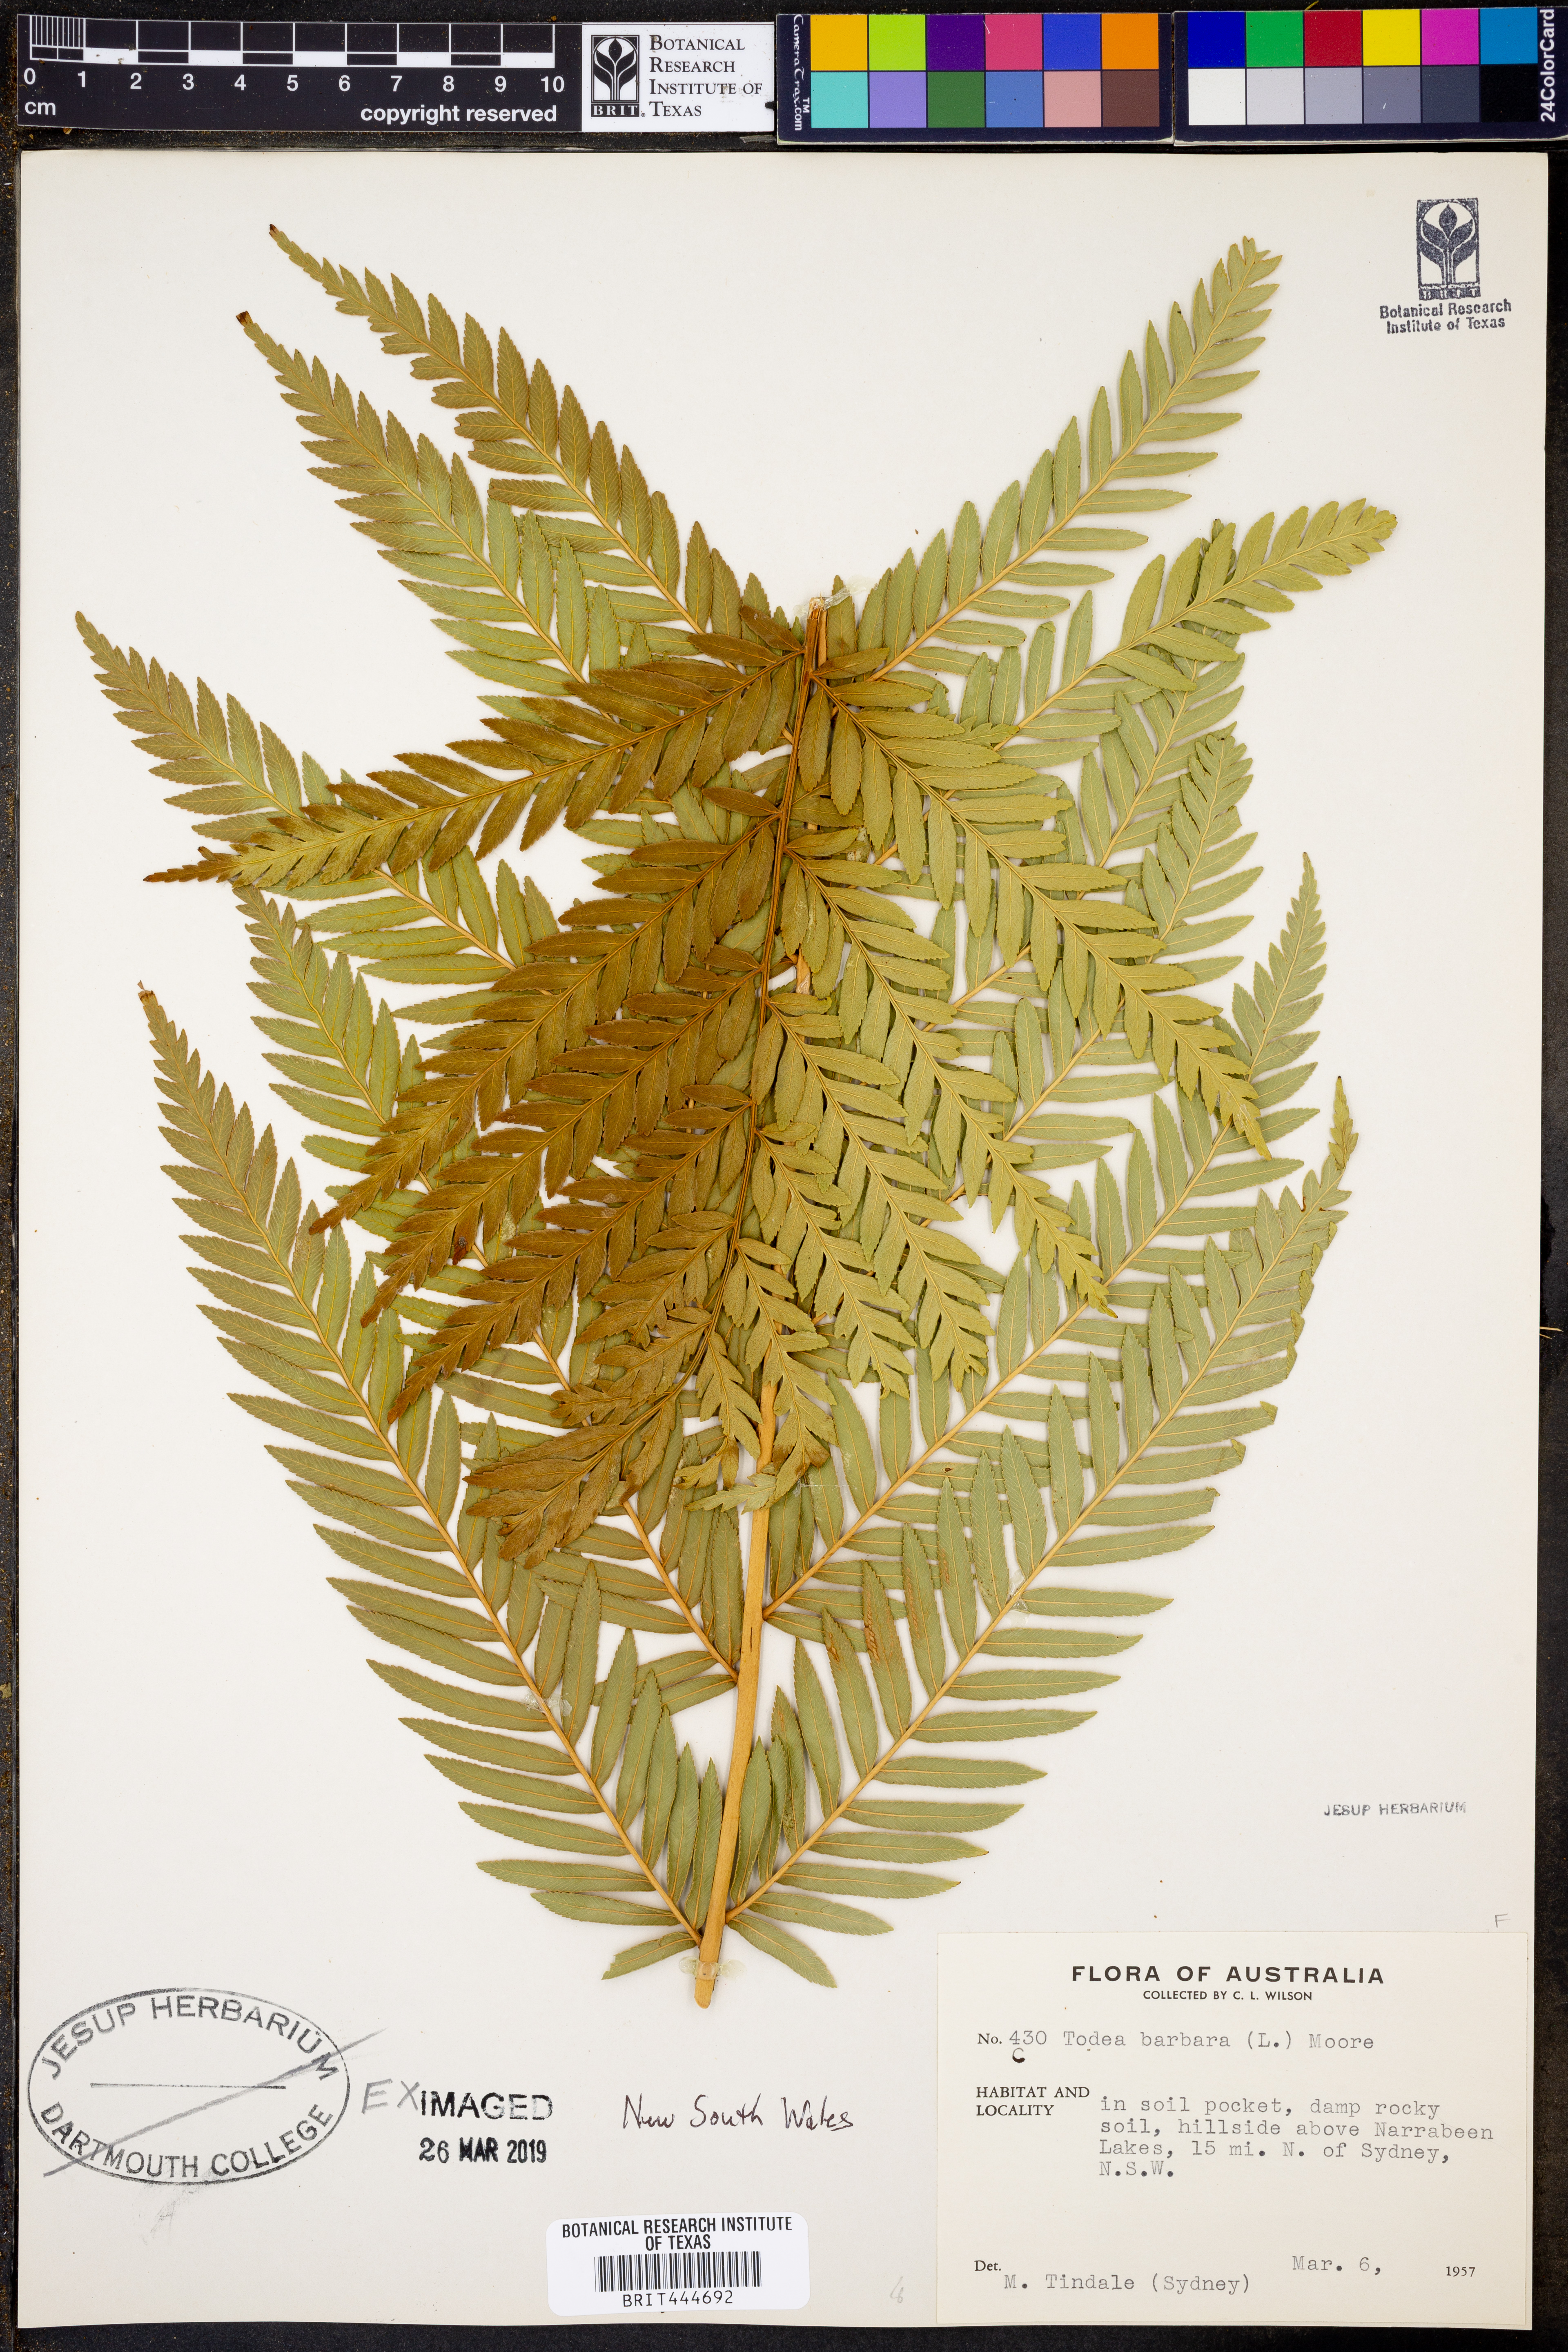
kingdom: Plantae
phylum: Tracheophyta
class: Polypodiopsida
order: Osmundales
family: Osmundaceae
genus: Todea
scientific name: Todea barbara
